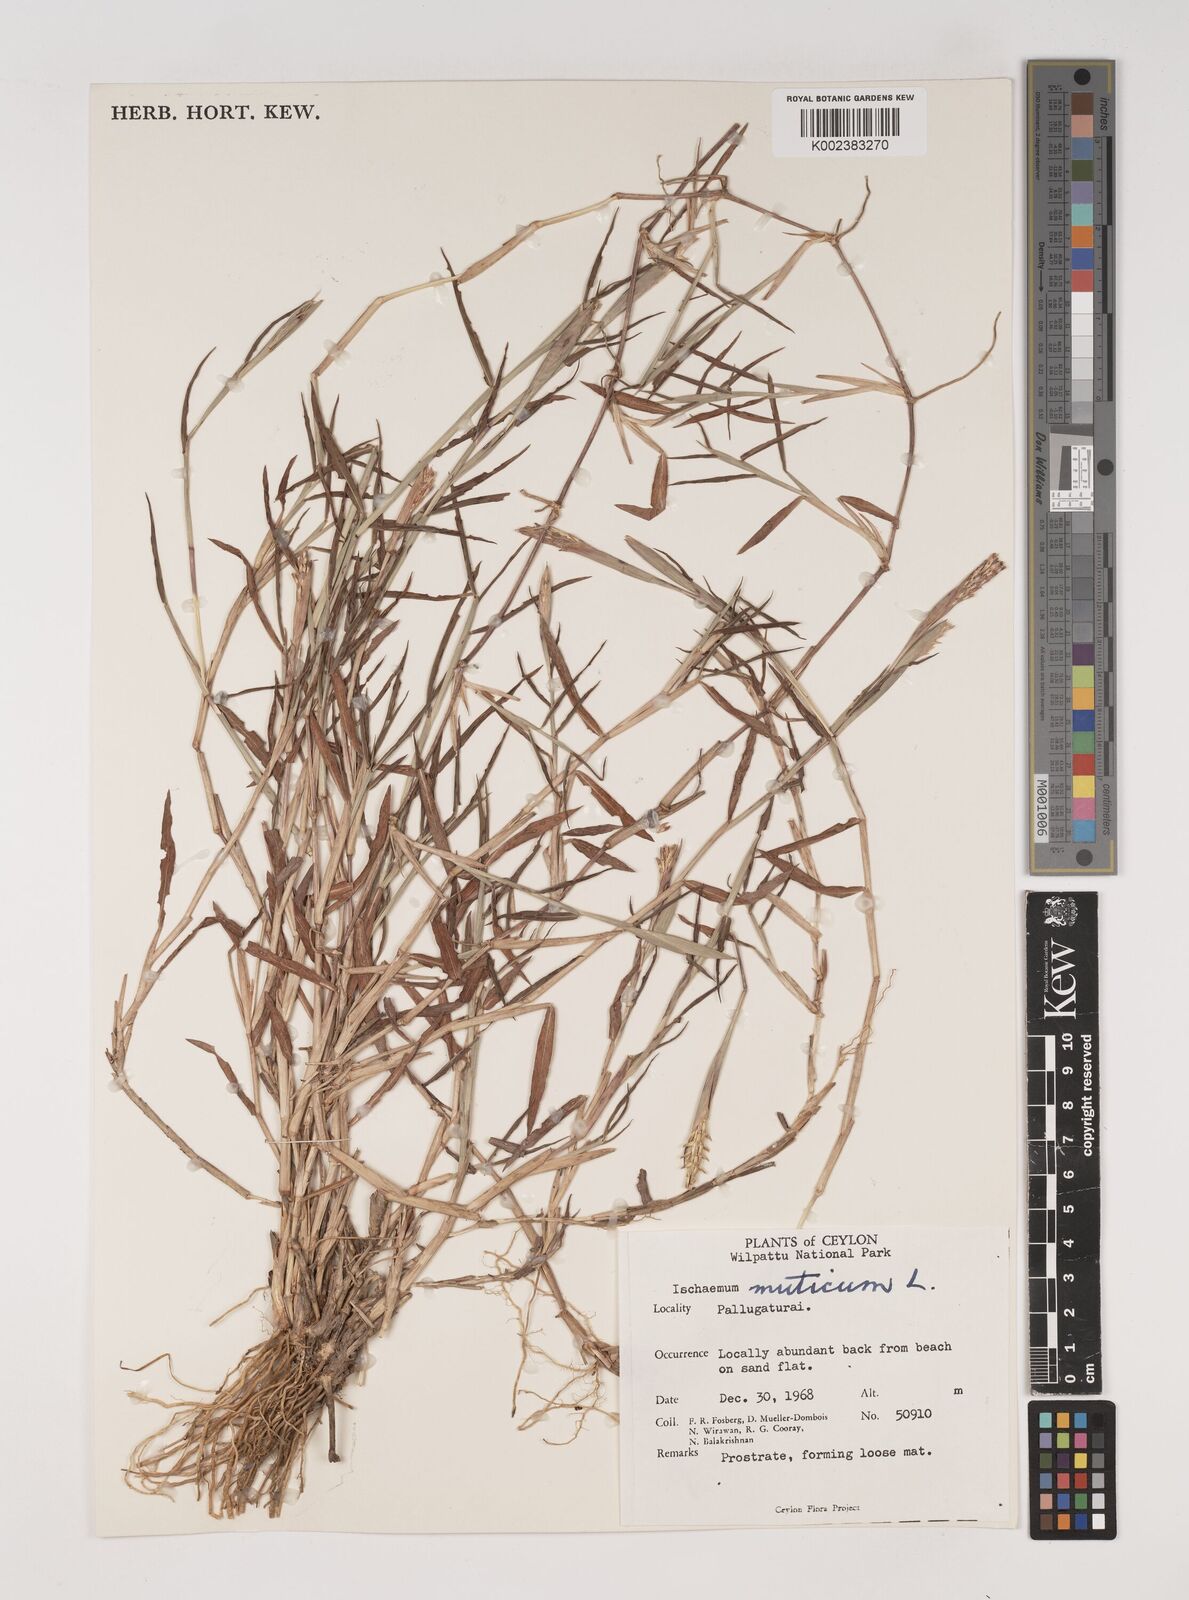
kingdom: Plantae
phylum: Tracheophyta
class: Liliopsida
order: Poales
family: Poaceae
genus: Ischaemum
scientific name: Ischaemum muticum
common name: Drought grass
